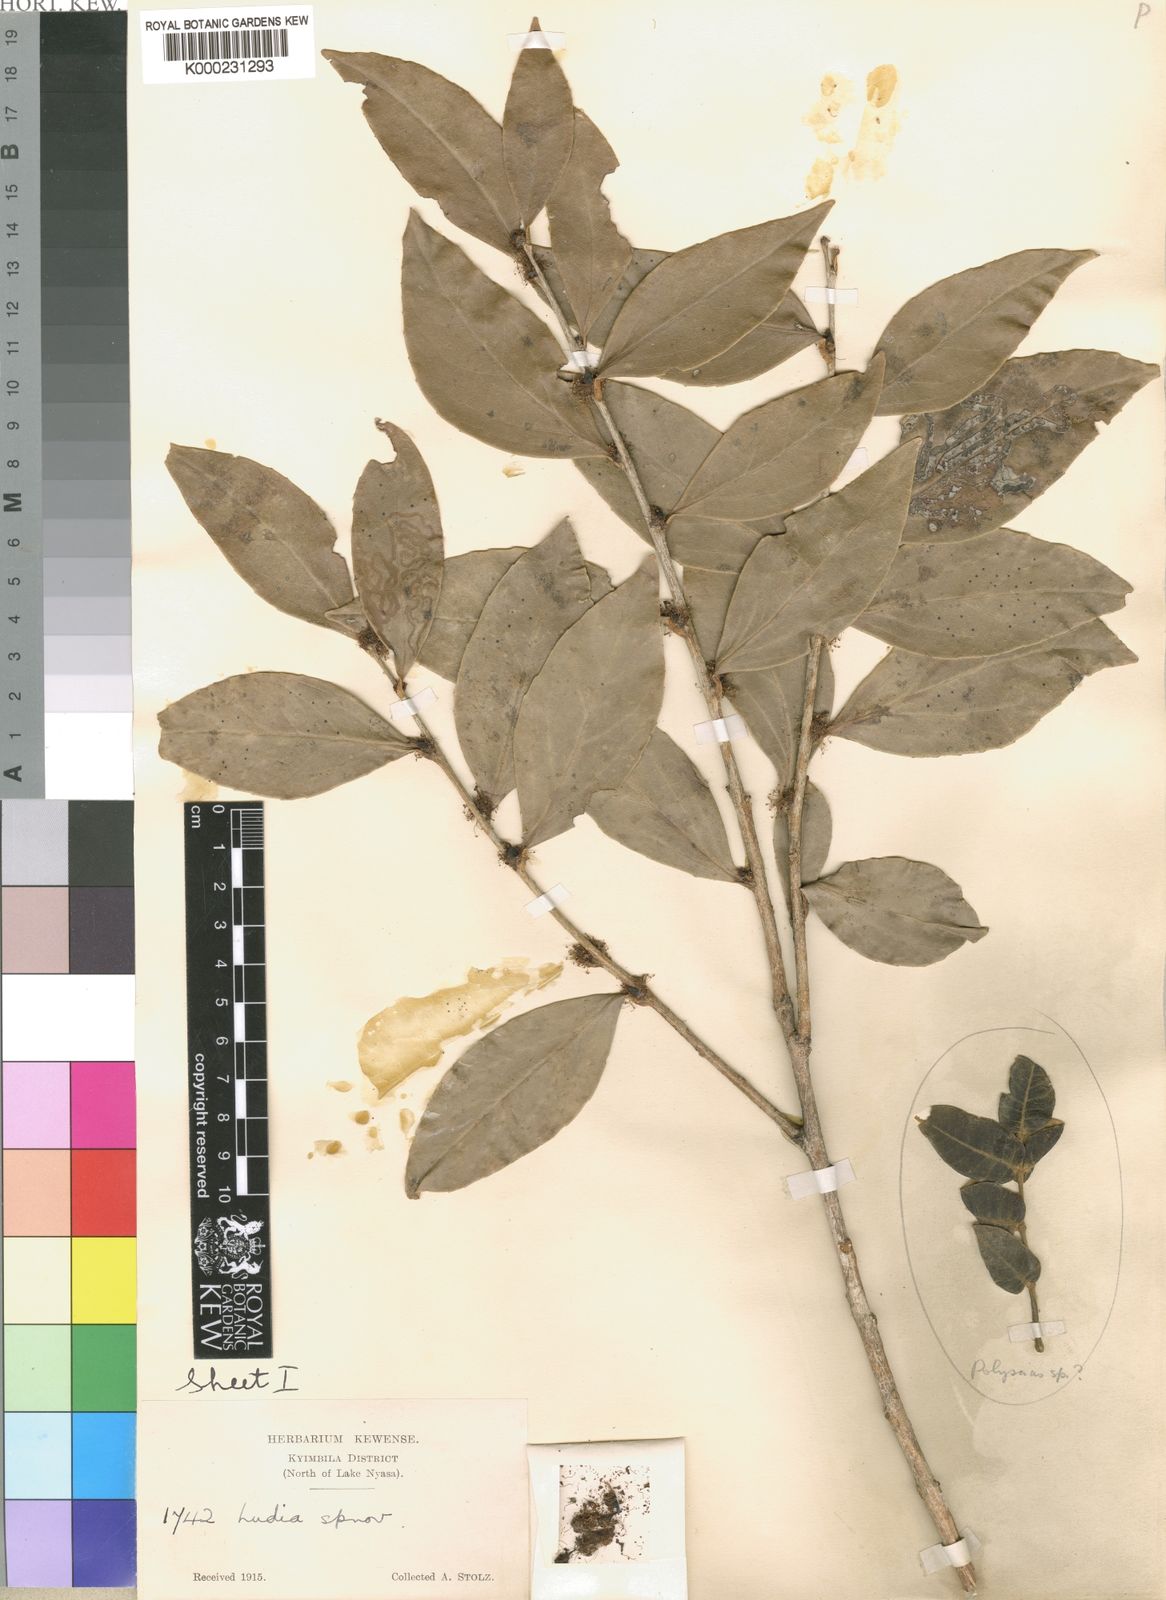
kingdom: Plantae
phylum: Tracheophyta
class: Magnoliopsida
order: Malpighiales
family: Salicaceae
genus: Scolopia
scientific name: Scolopia stolzii
